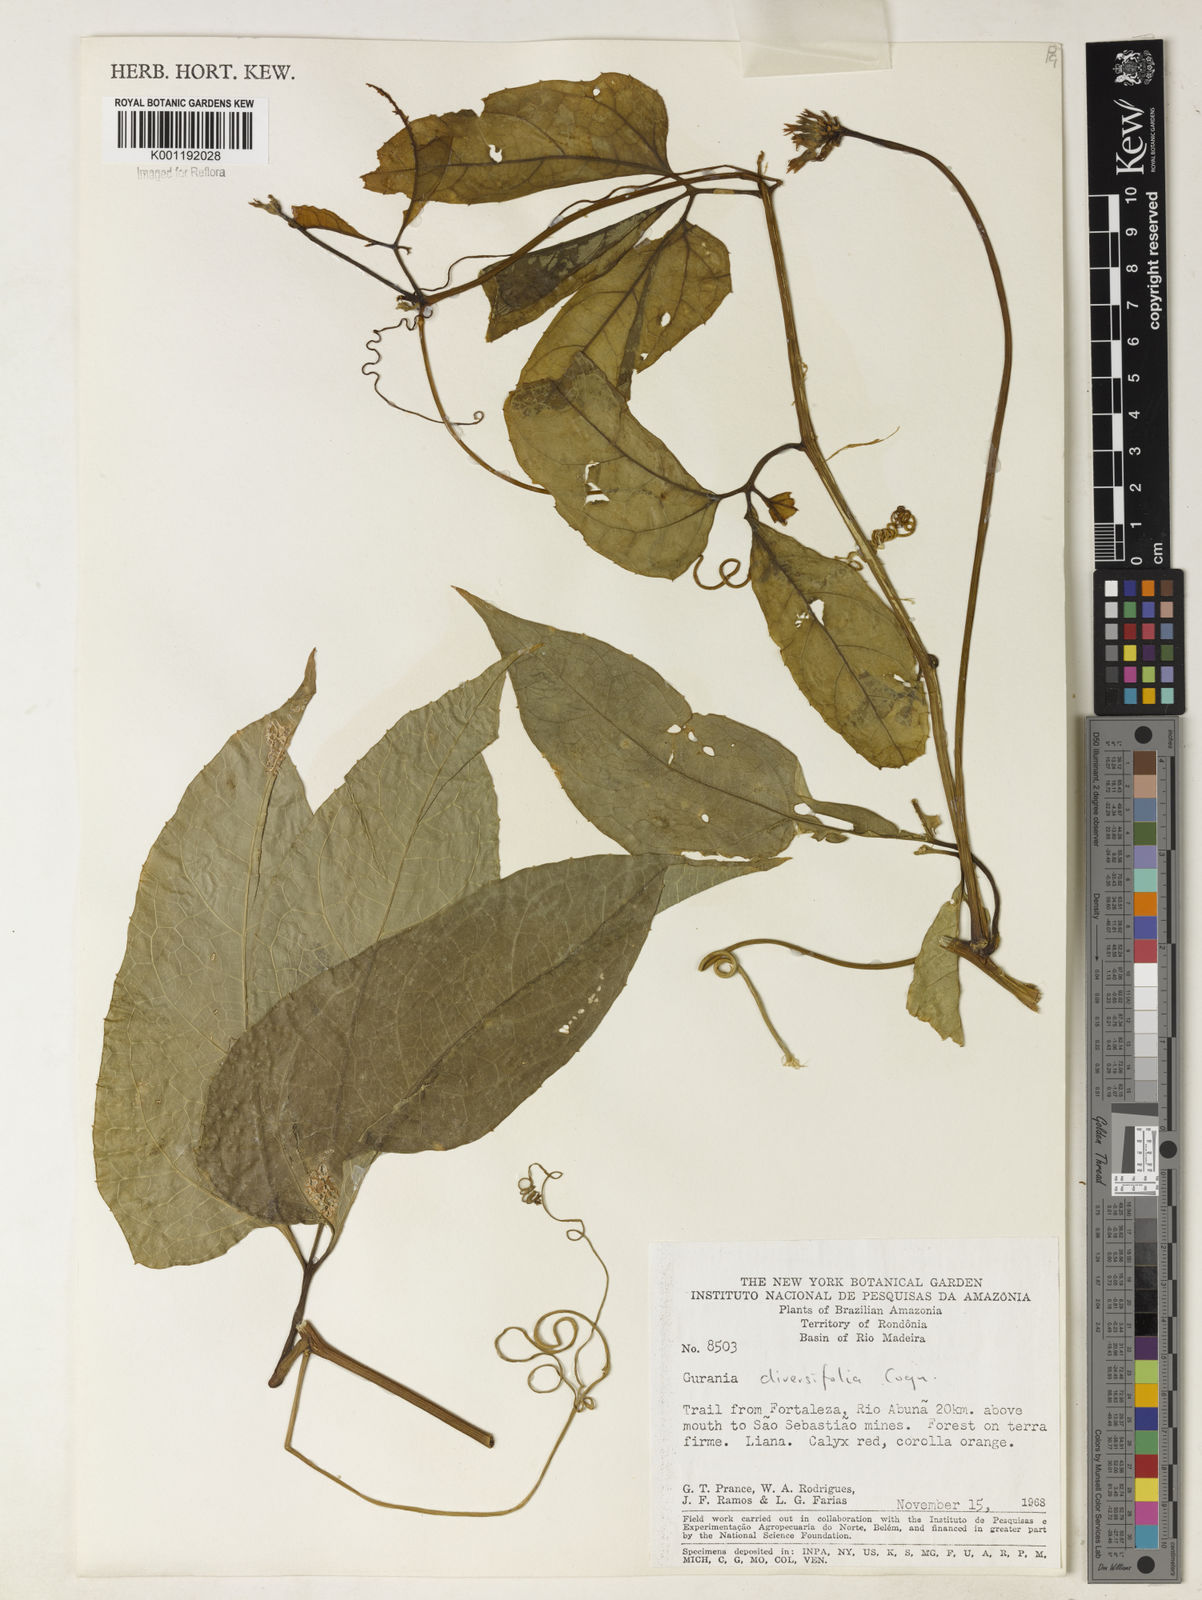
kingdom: Plantae
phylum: Tracheophyta
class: Magnoliopsida
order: Cucurbitales
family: Cucurbitaceae
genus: Gurania
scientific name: Gurania acuminata
